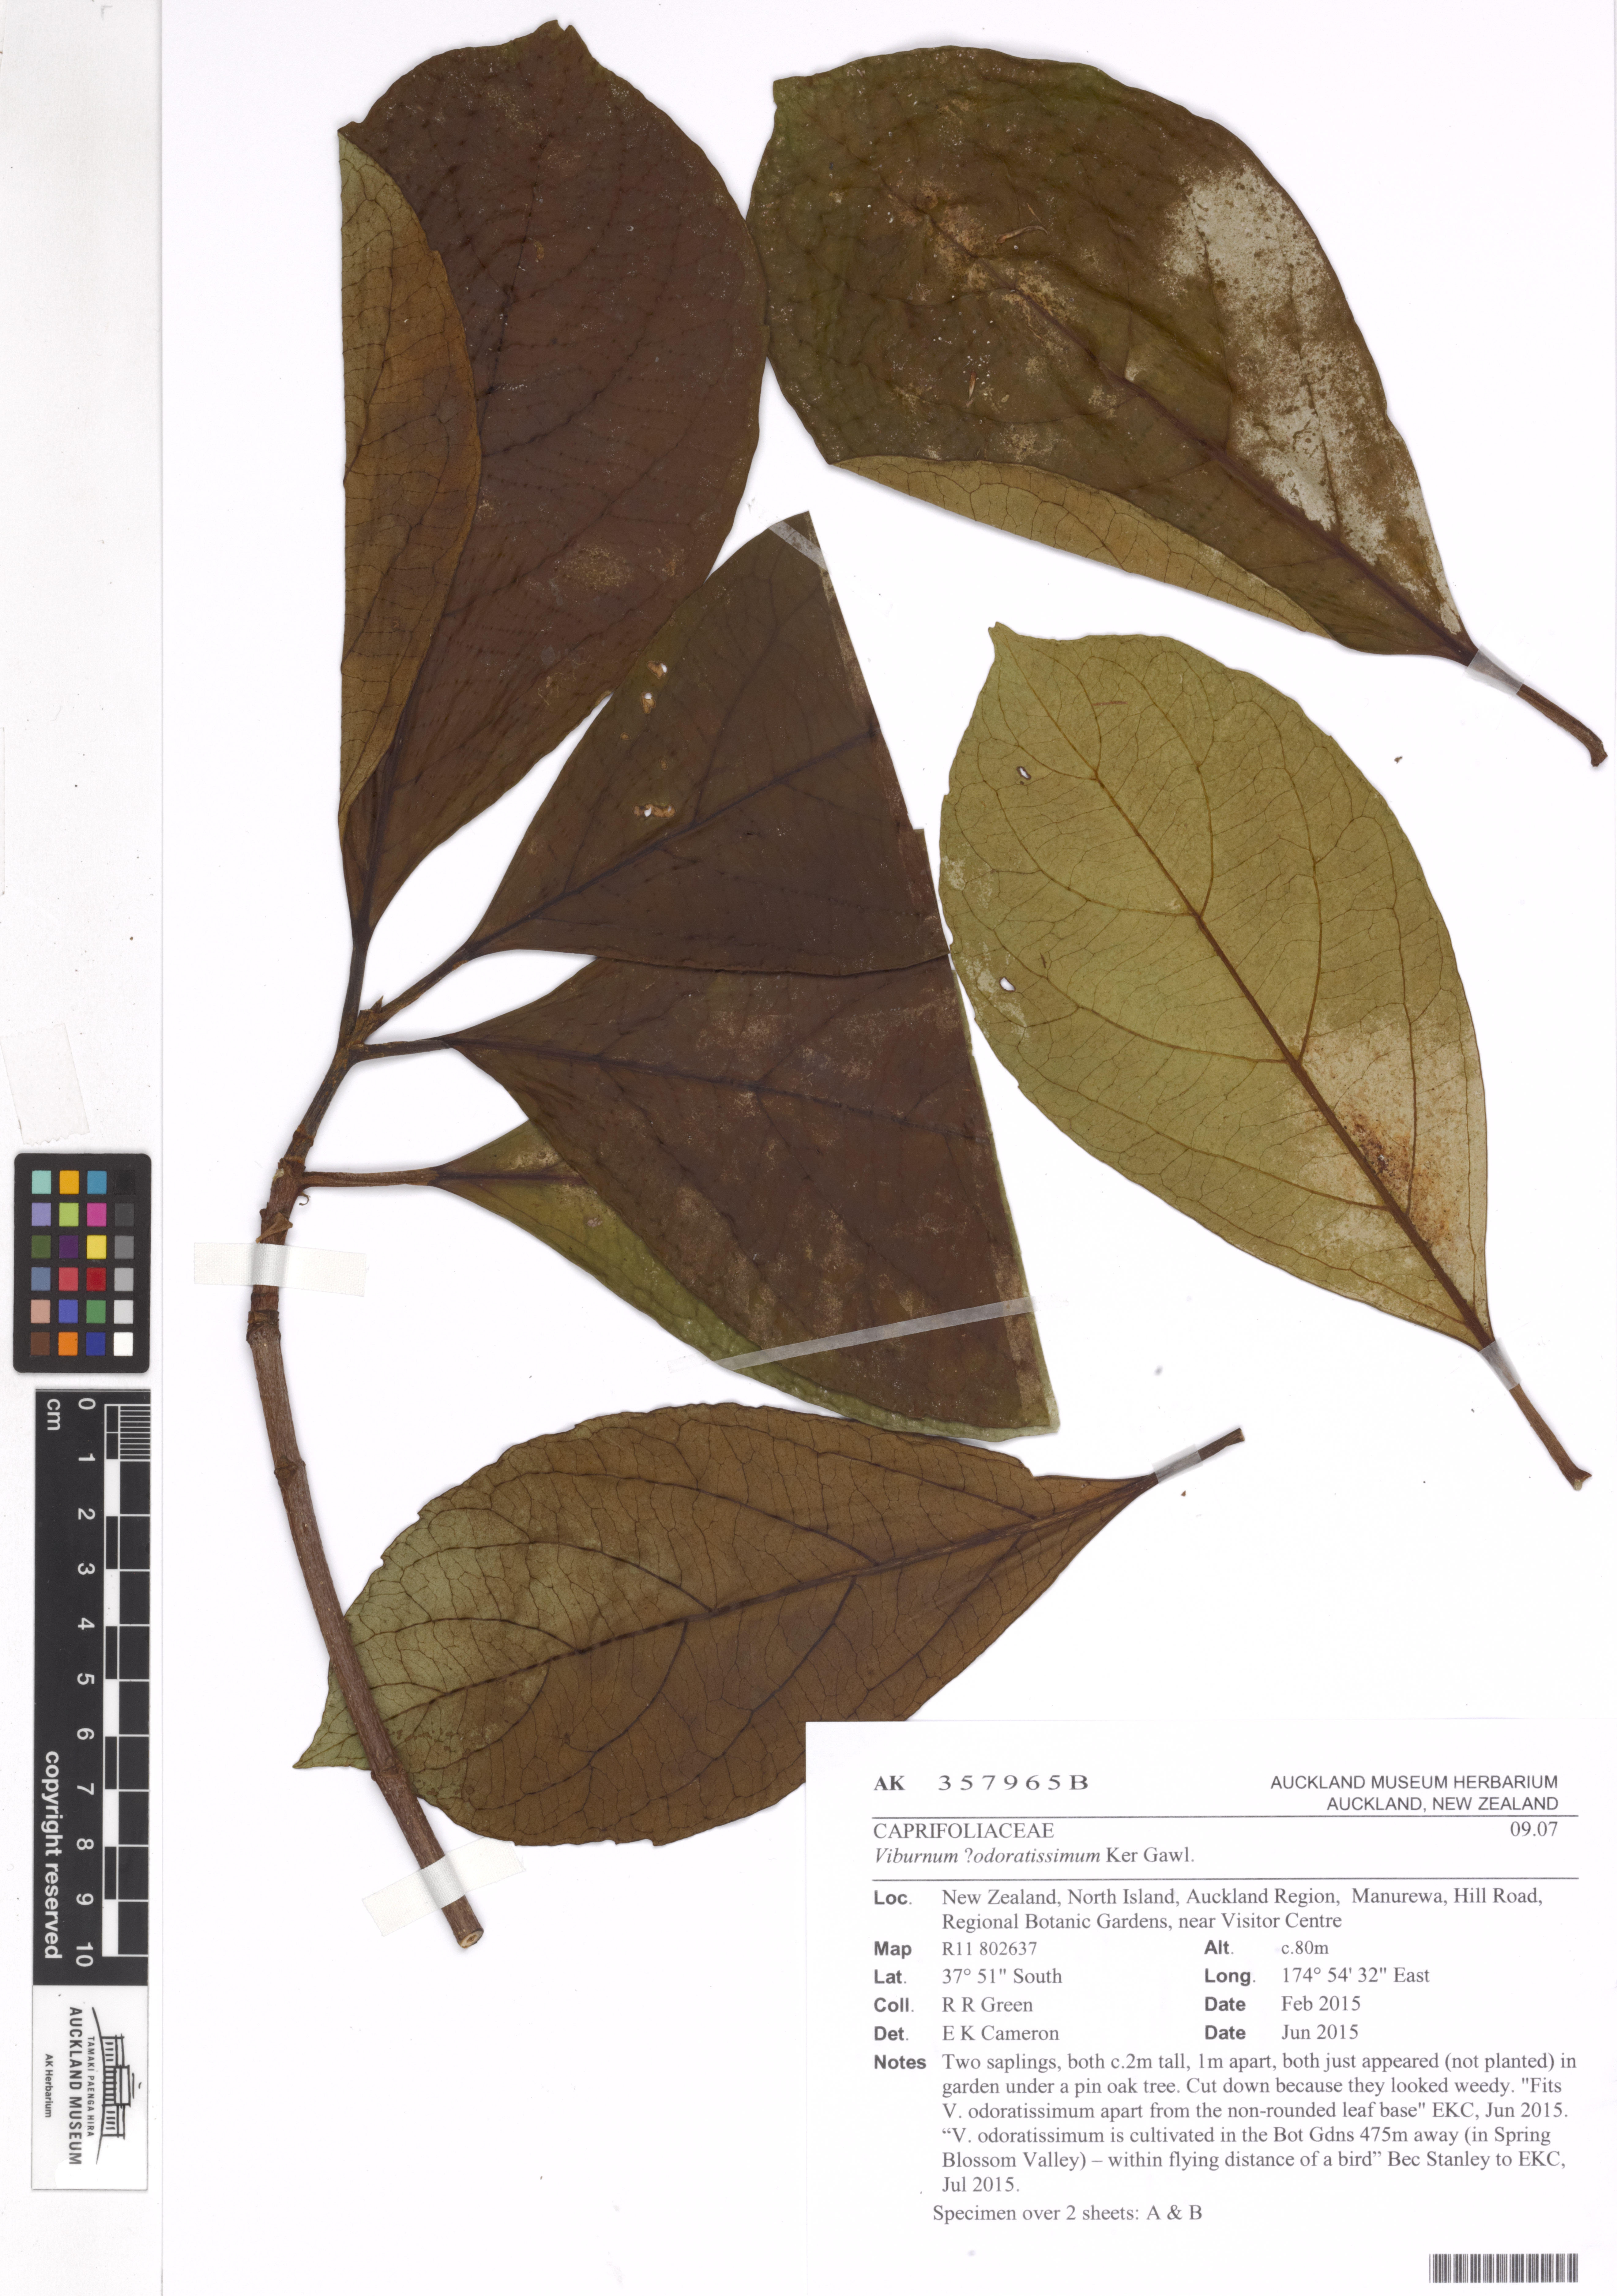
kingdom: Plantae
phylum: Tracheophyta
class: Magnoliopsida
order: Dipsacales
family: Viburnaceae
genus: Viburnum
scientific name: Viburnum odoratissimum
